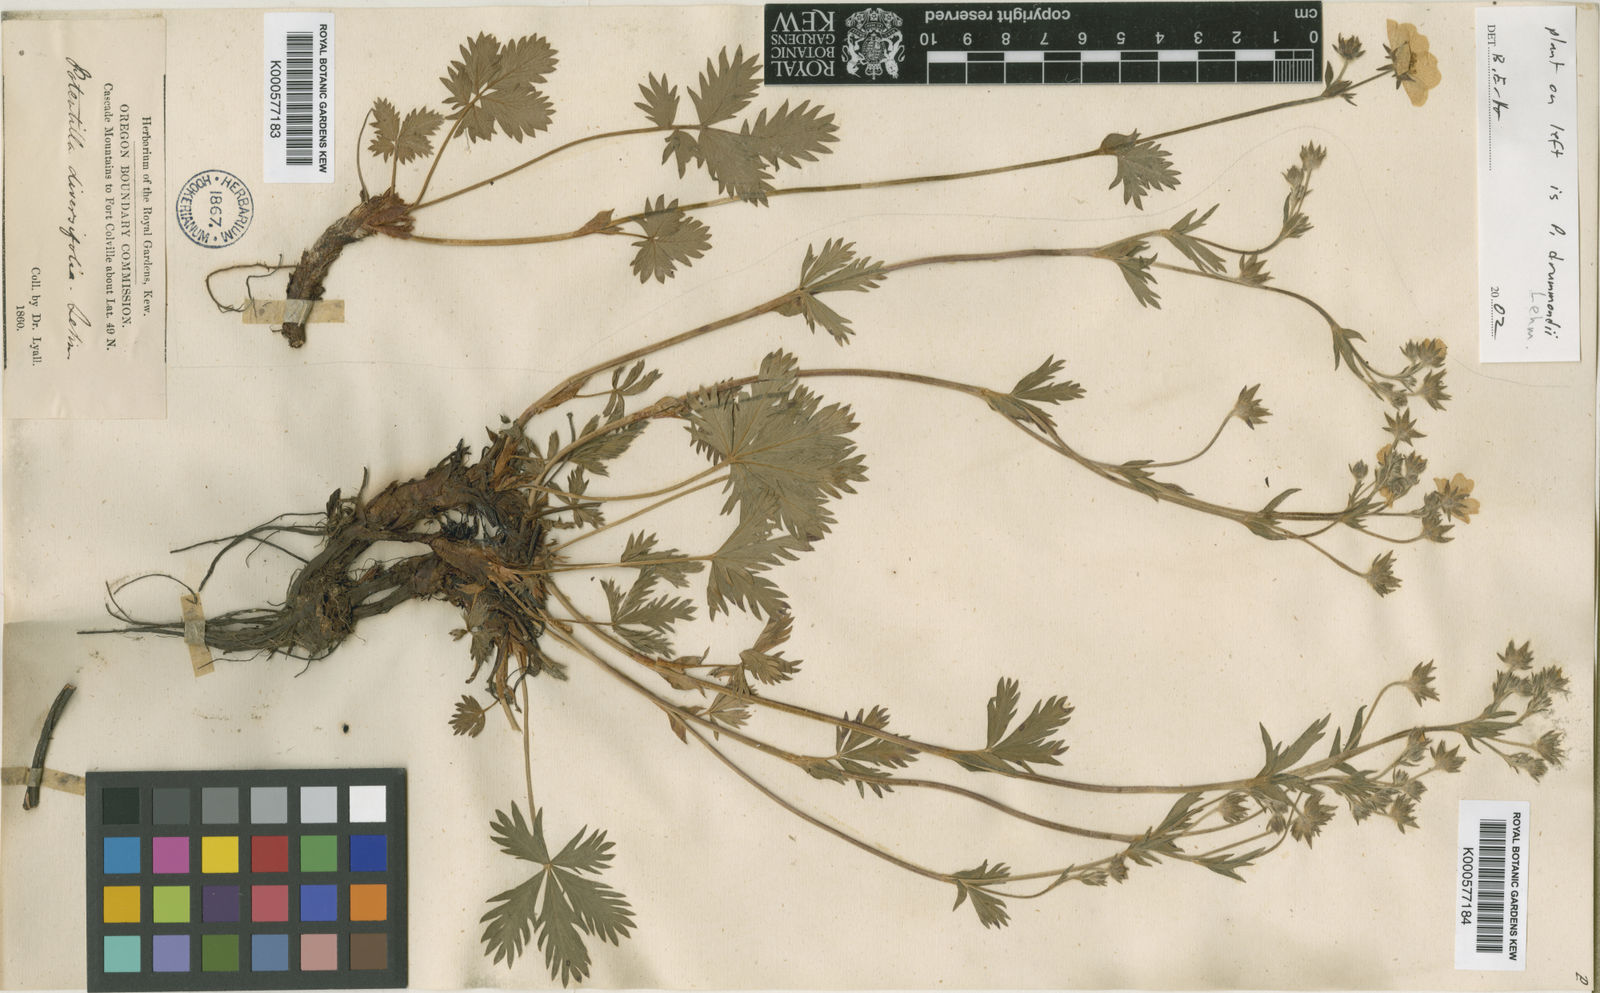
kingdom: Plantae
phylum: Tracheophyta
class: Magnoliopsida
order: Rosales
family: Rosaceae
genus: Potentilla
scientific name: Potentilla drummondii
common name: Drummond's cinquefoil
